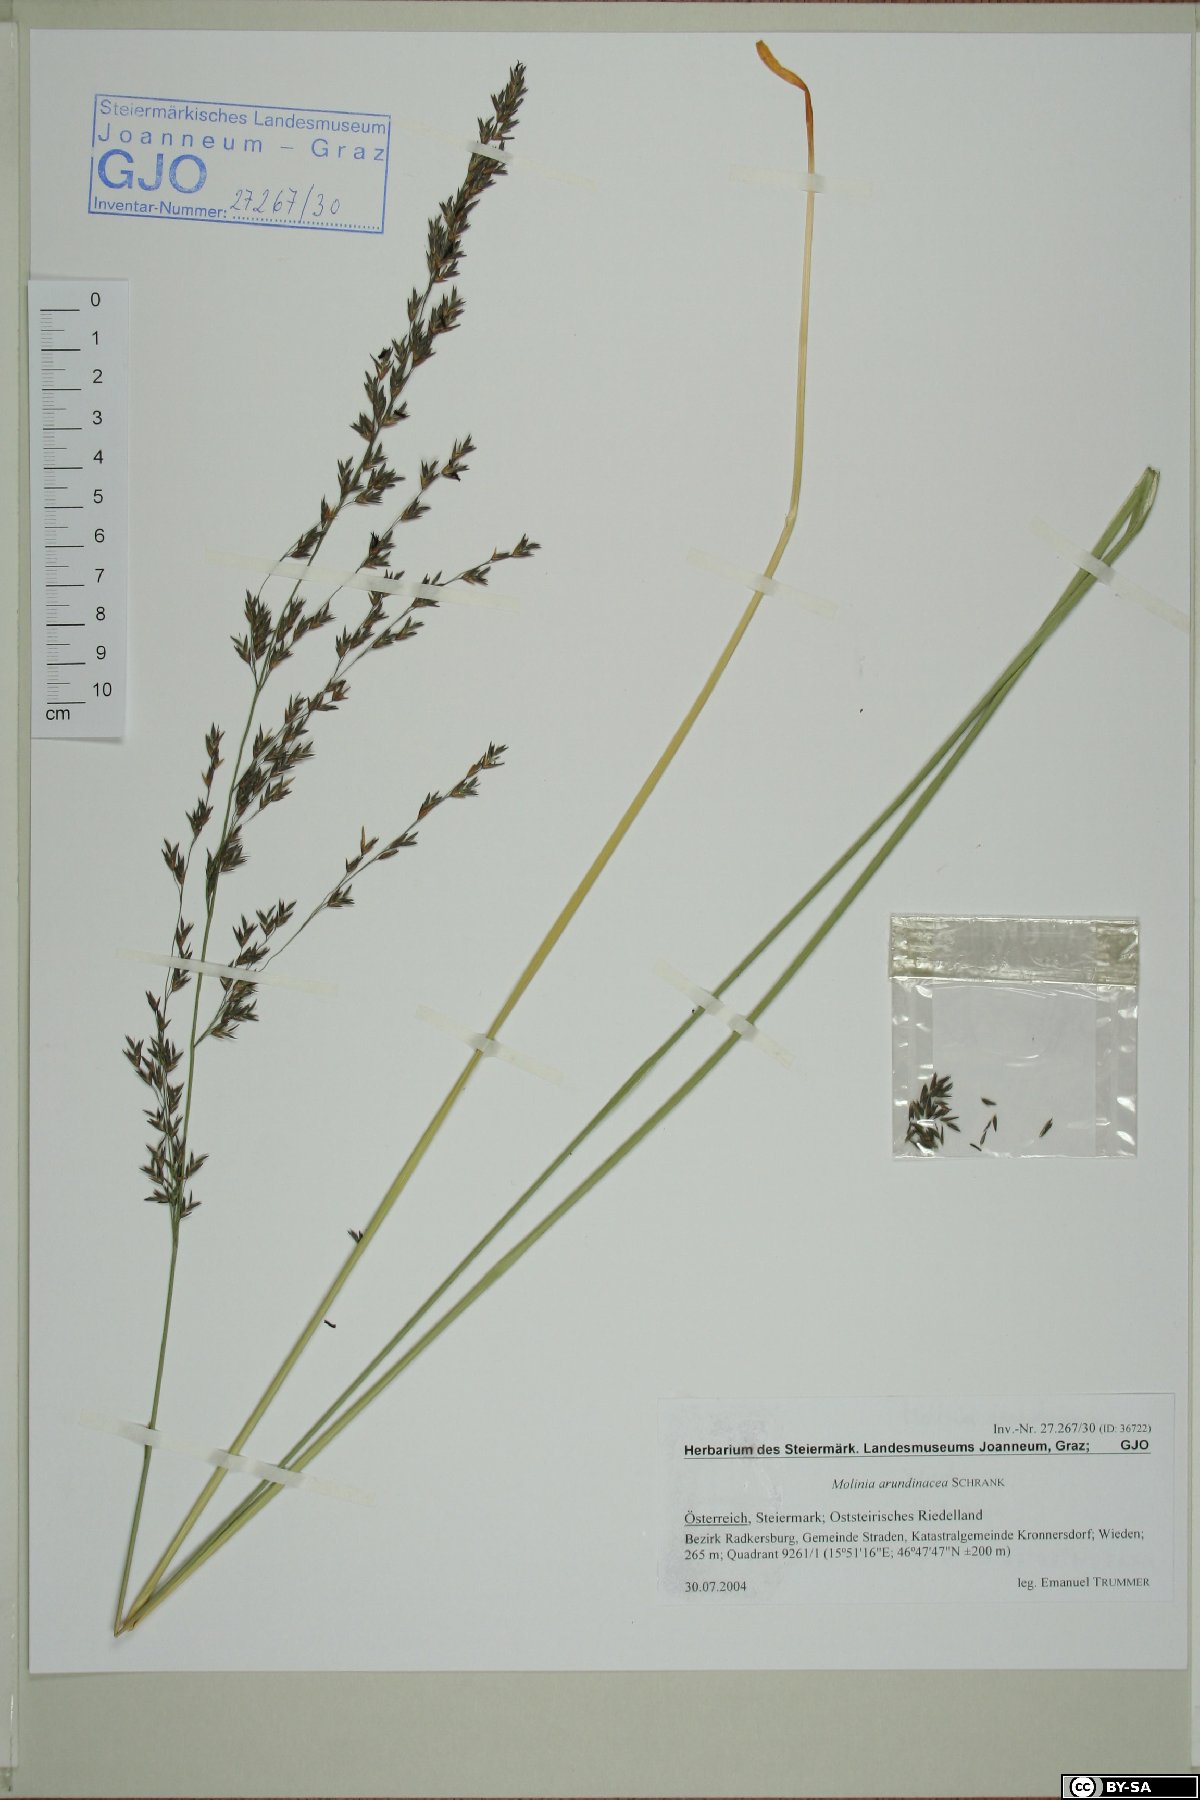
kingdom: Plantae
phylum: Tracheophyta
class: Liliopsida
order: Poales
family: Poaceae
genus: Molinia
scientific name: Molinia arundinacea
